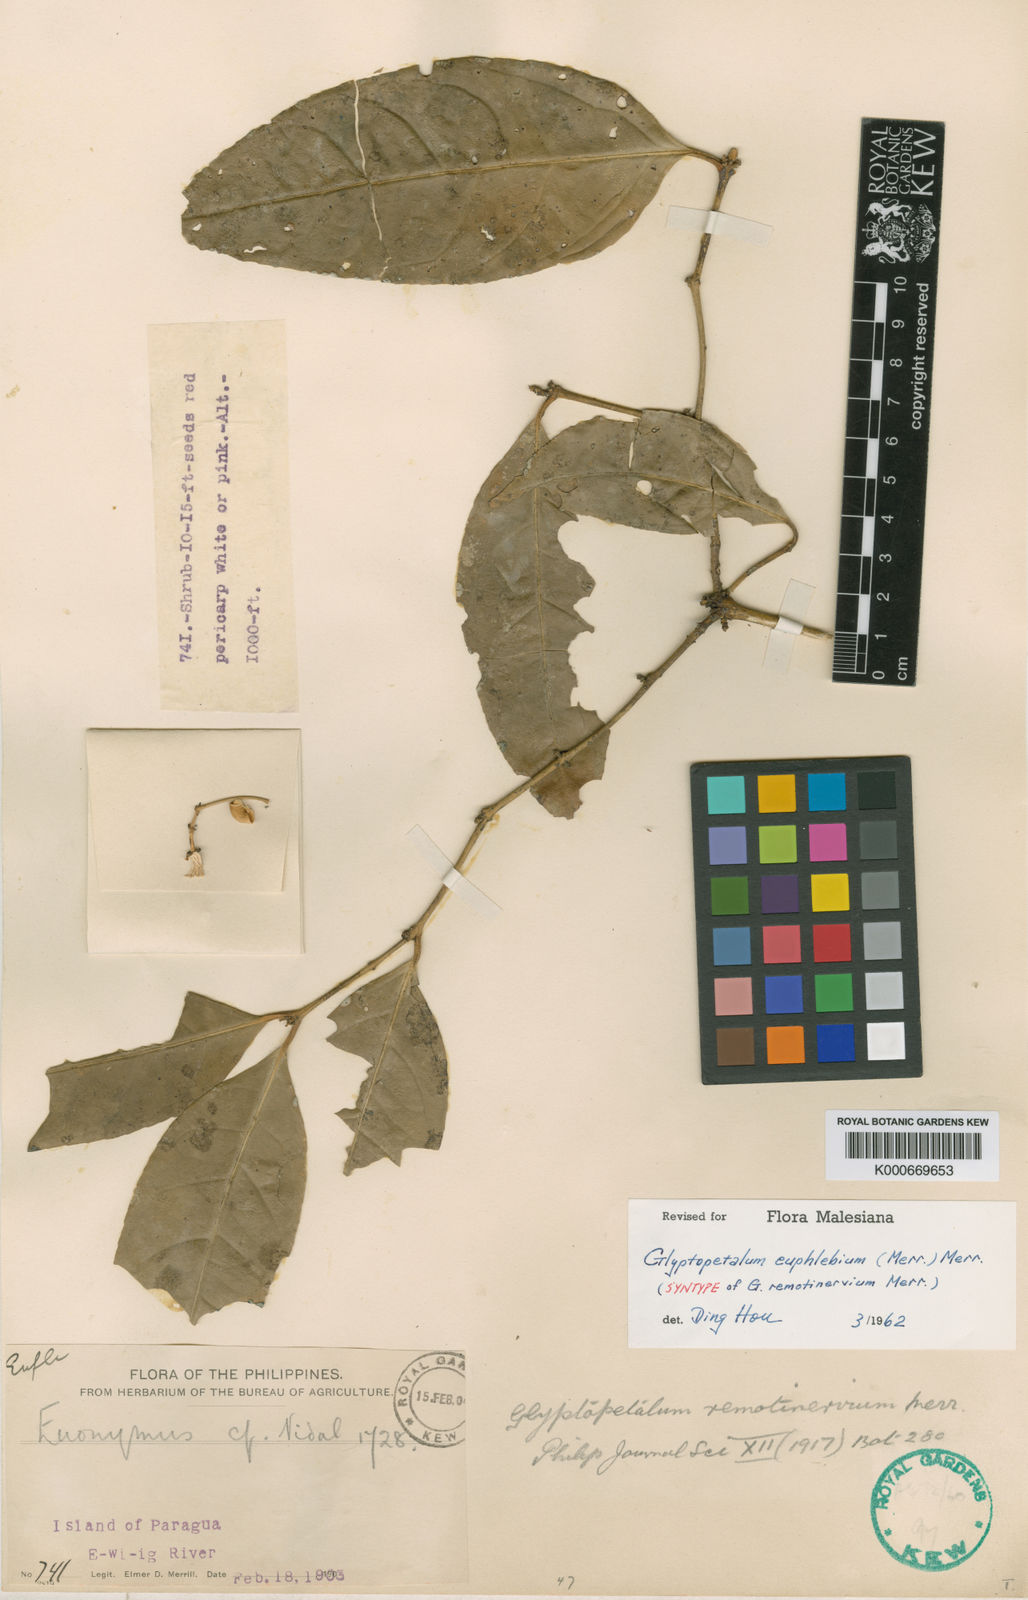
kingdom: Plantae
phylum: Tracheophyta
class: Magnoliopsida
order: Celastrales
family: Celastraceae
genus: Euonymus
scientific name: Euonymus euphlebius
